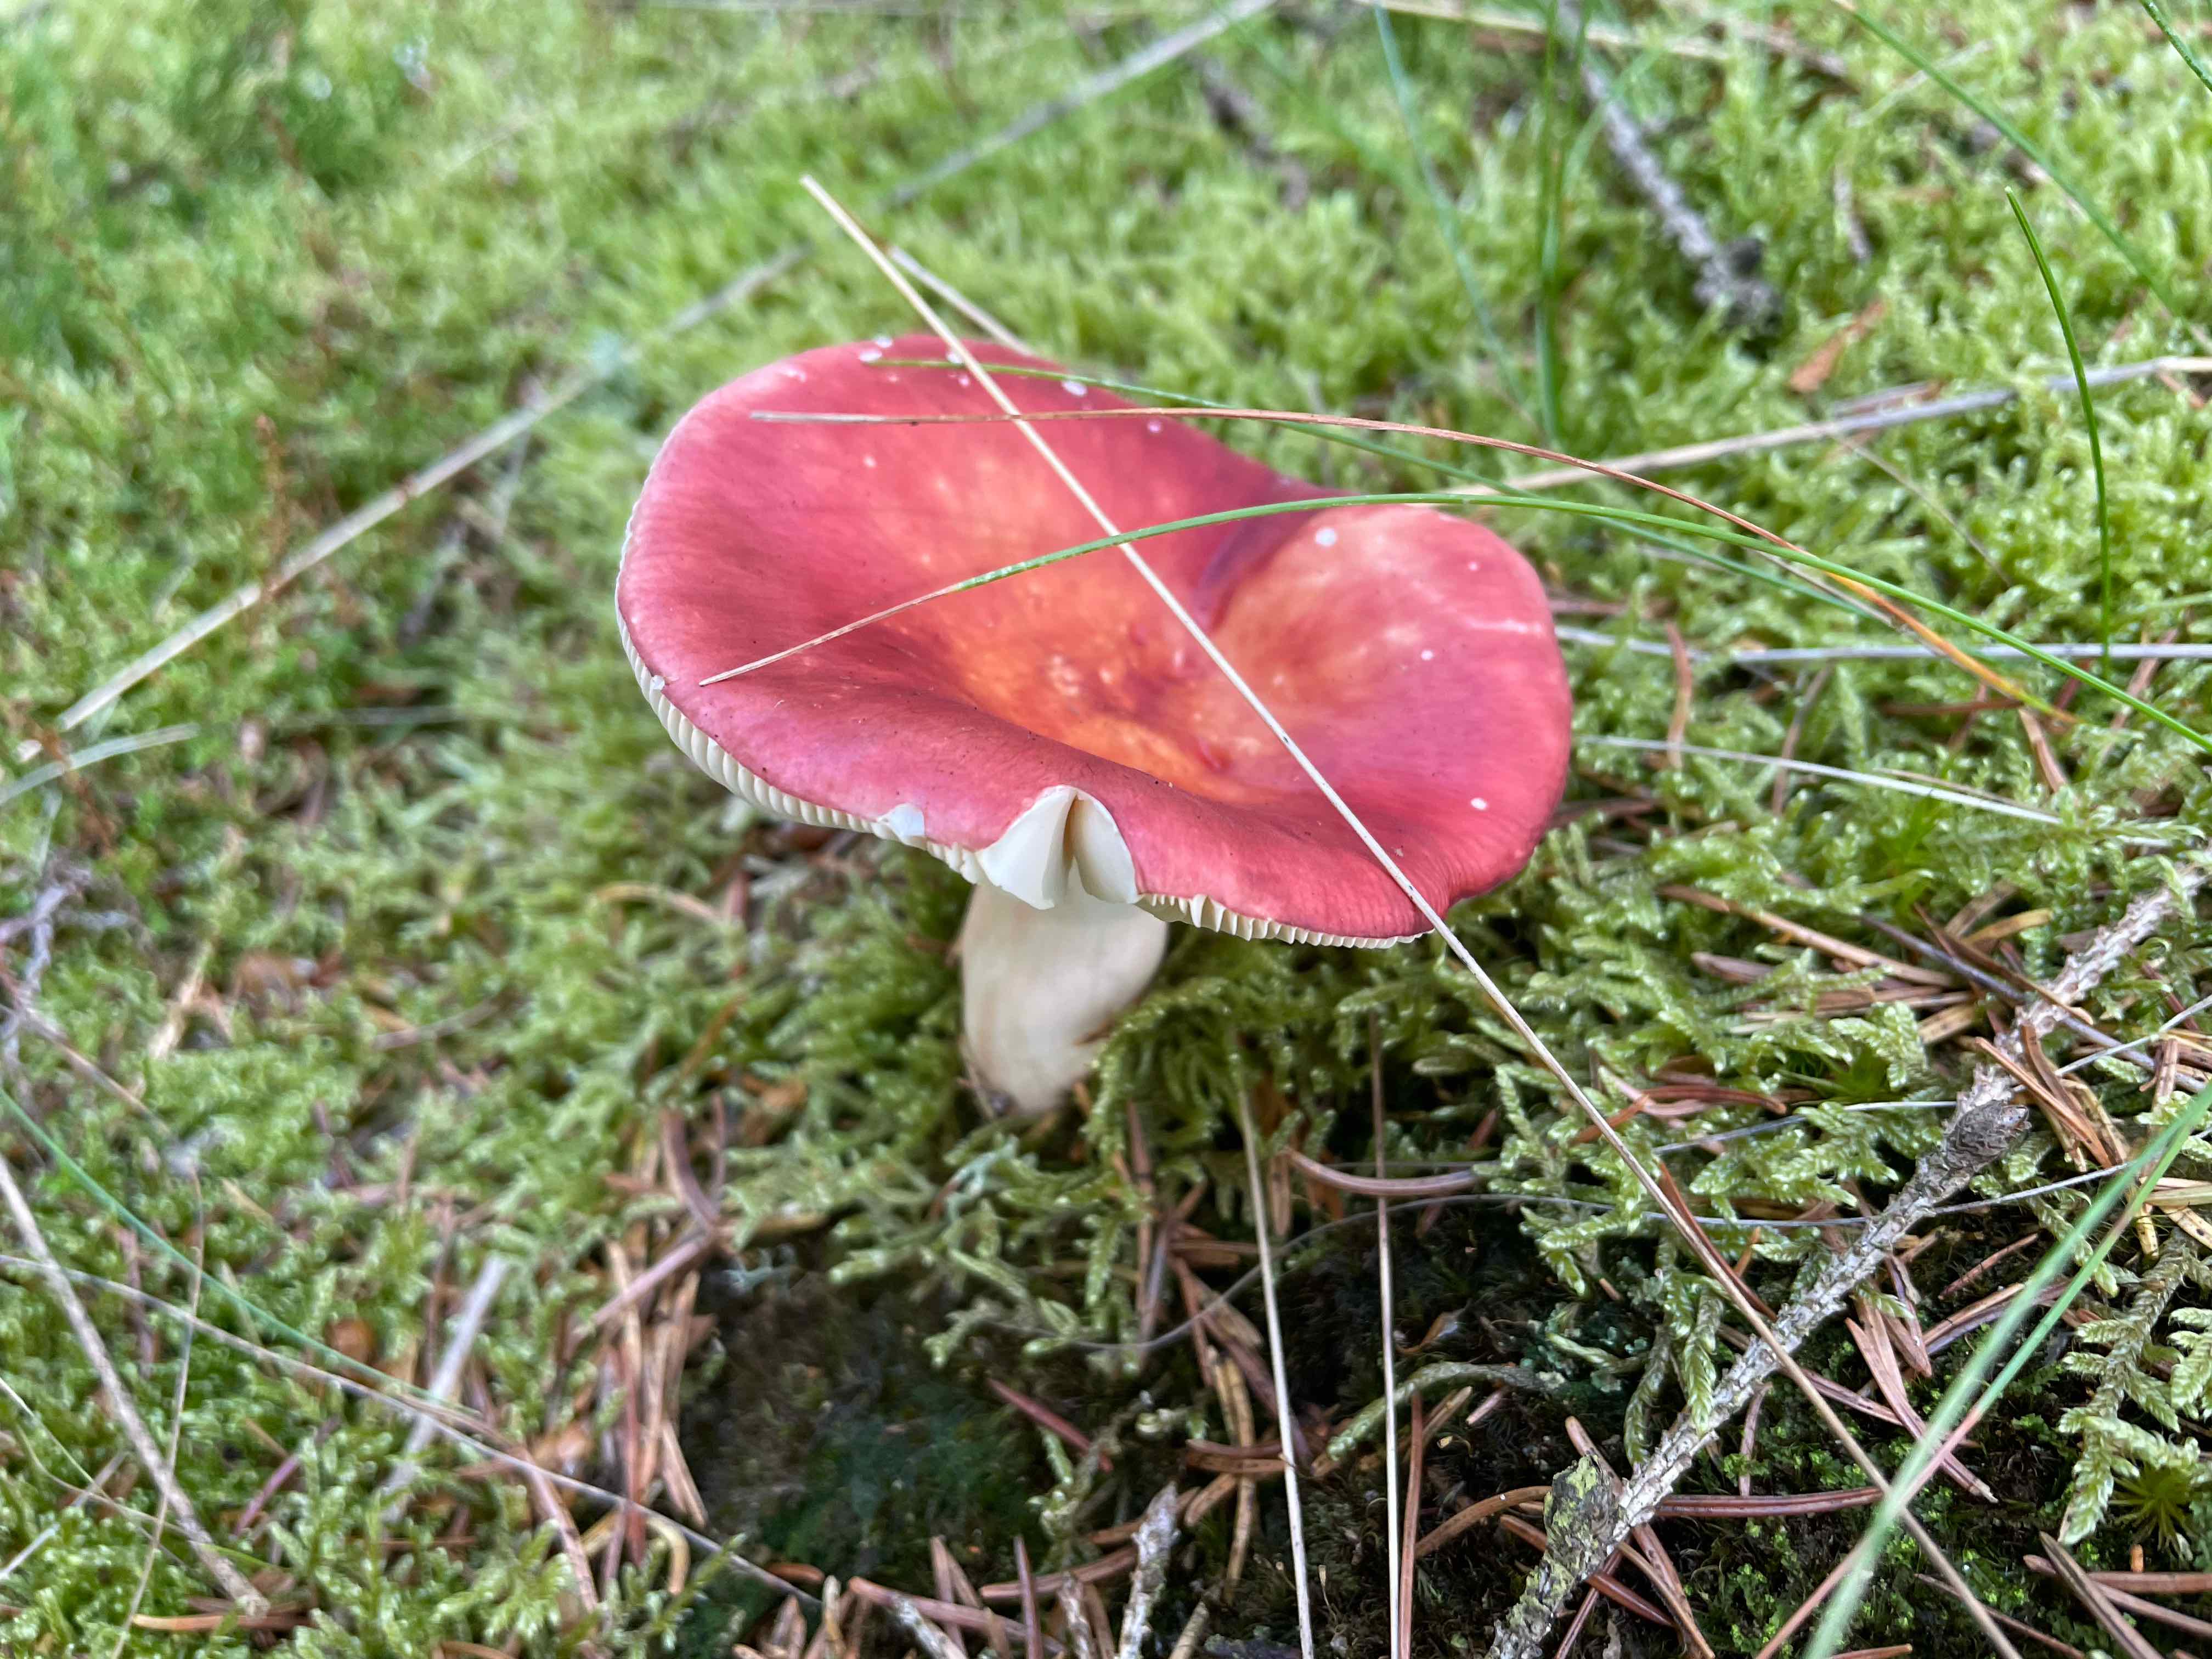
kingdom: Fungi
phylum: Basidiomycota
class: Agaricomycetes
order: Russulales
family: Russulaceae
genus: Russula
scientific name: Russula paludosa
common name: prægtig skørhat
